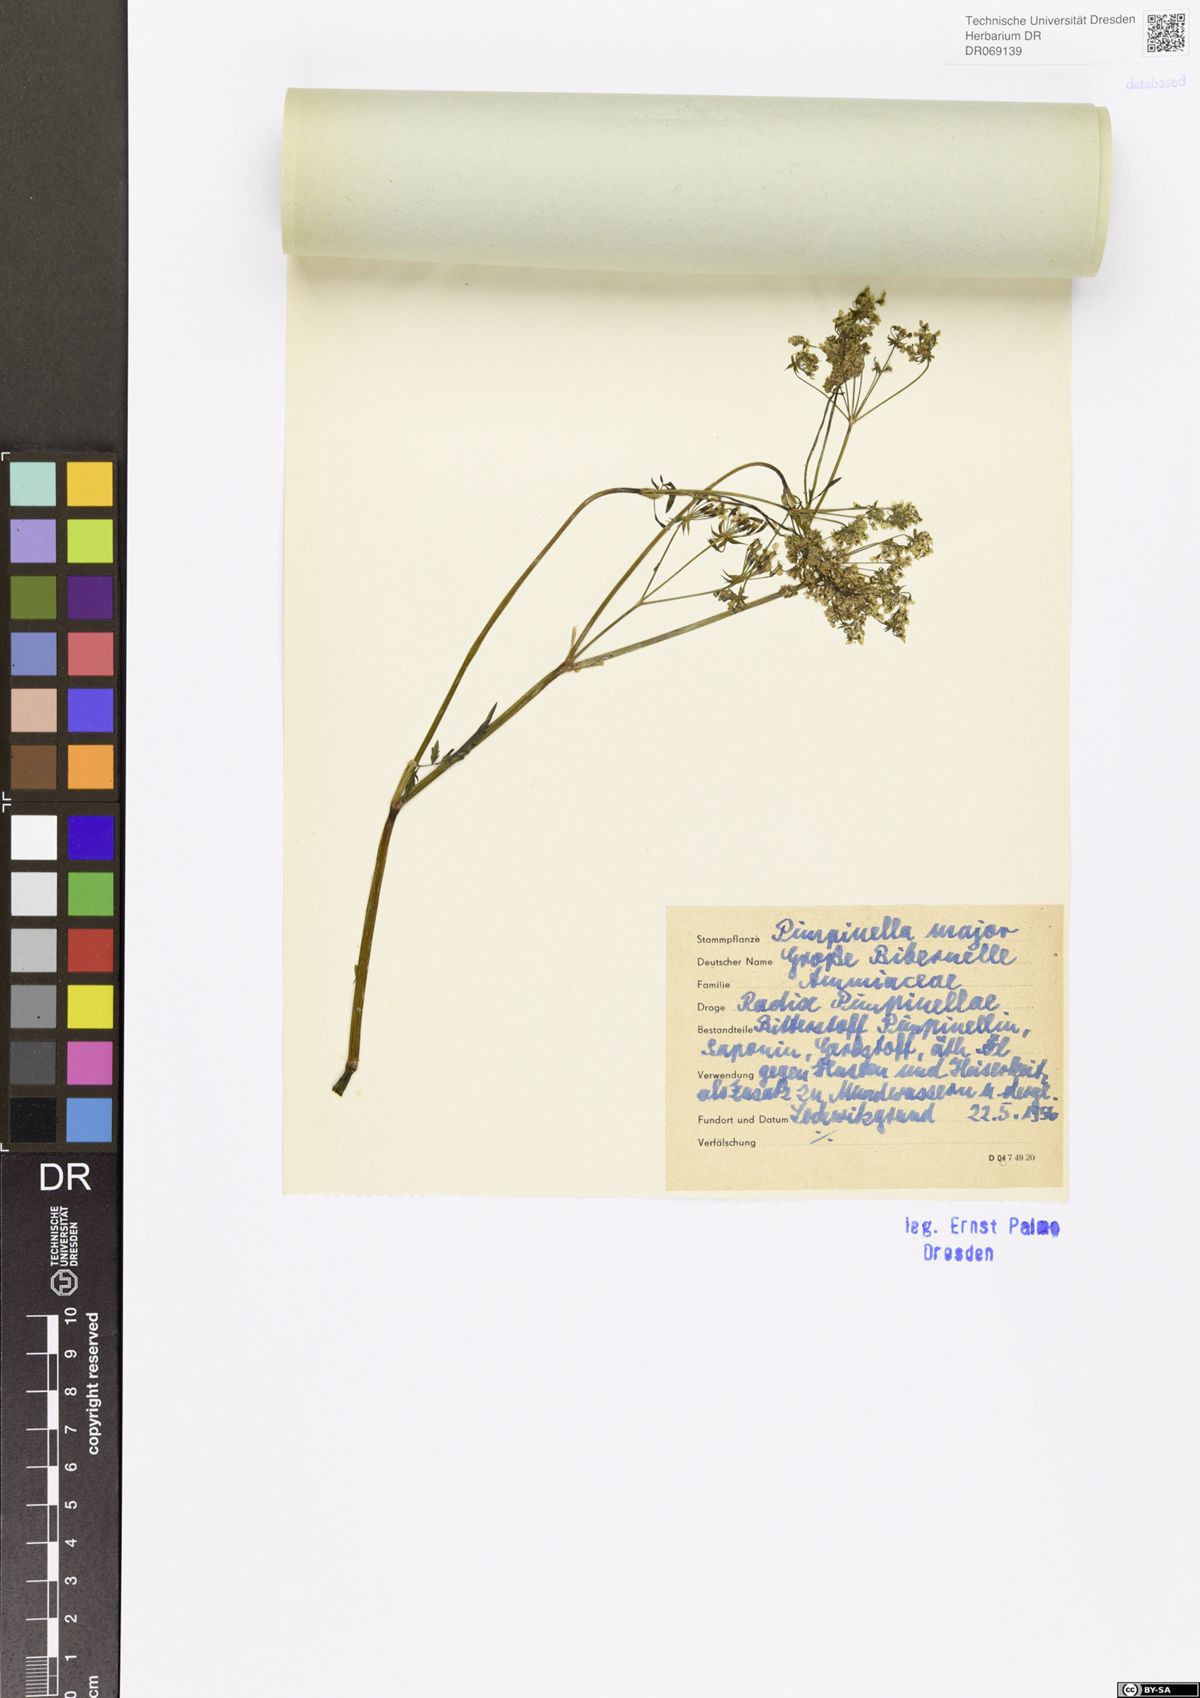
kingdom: Plantae
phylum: Tracheophyta
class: Magnoliopsida
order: Apiales
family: Apiaceae
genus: Pimpinella
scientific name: Pimpinella major
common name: Greater burnet-saxifrage
